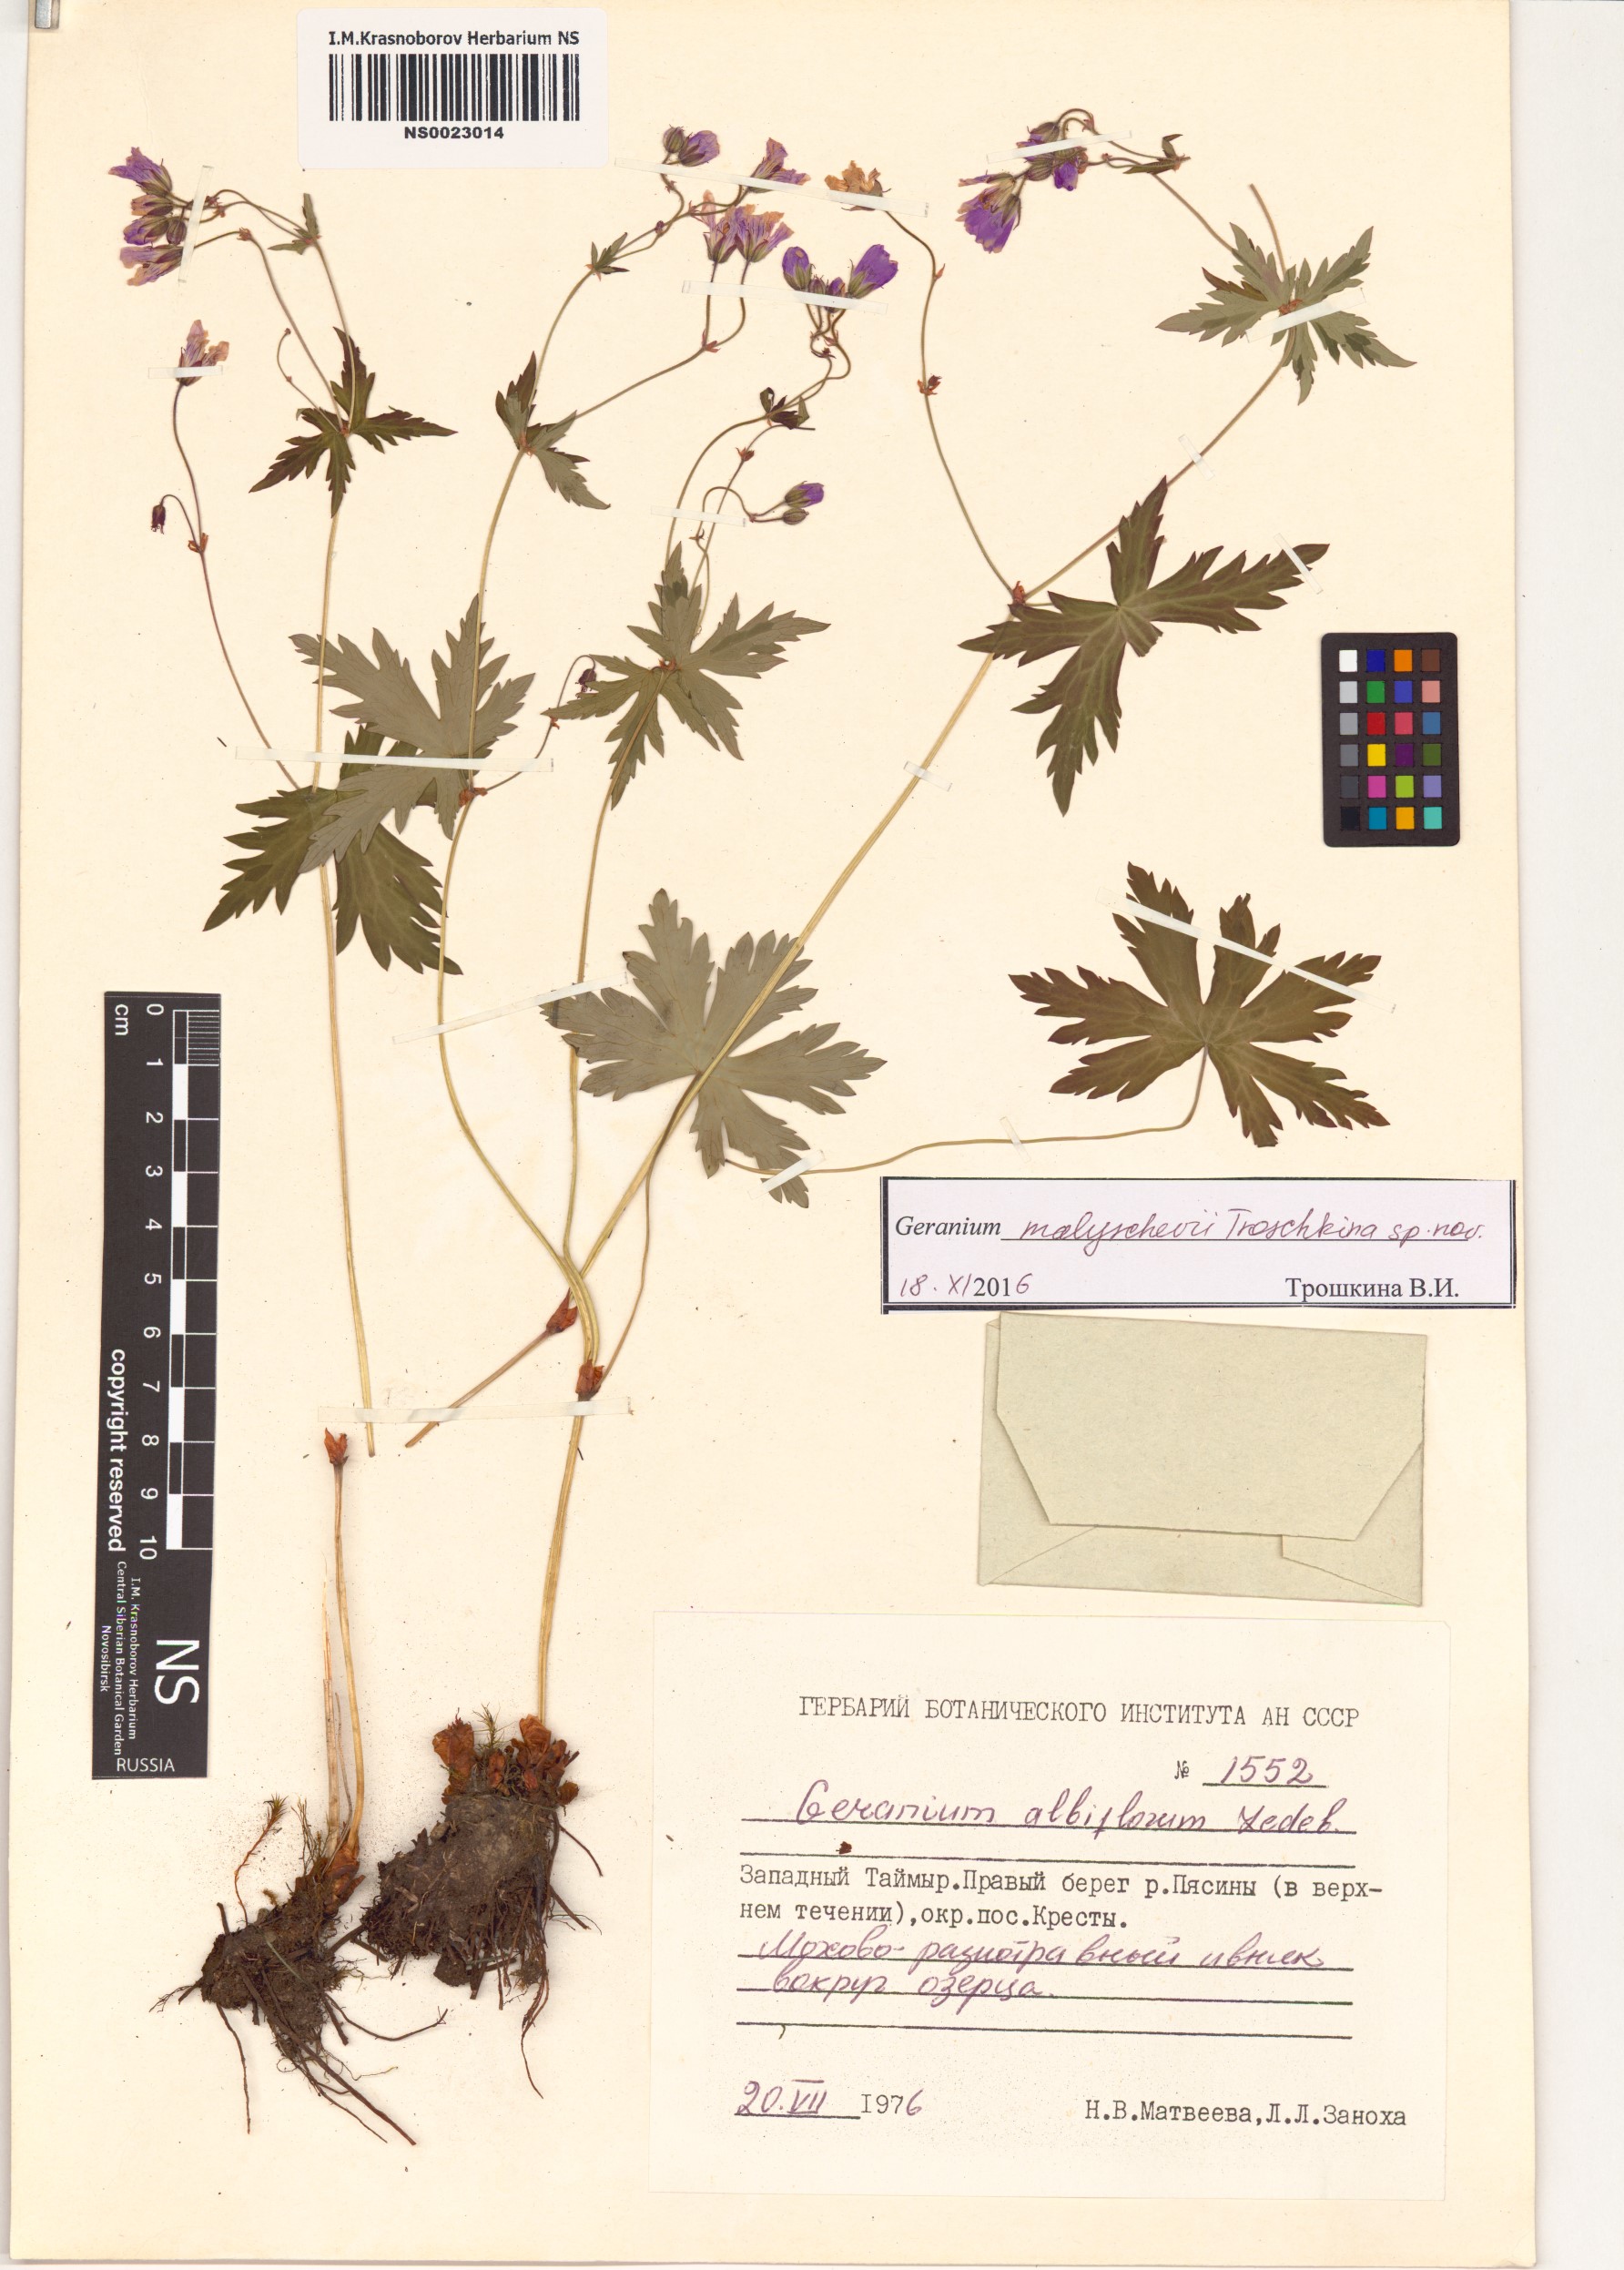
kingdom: Plantae
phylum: Tracheophyta
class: Magnoliopsida
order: Geraniales
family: Geraniaceae
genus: Geranium
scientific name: Geranium malyschevii
